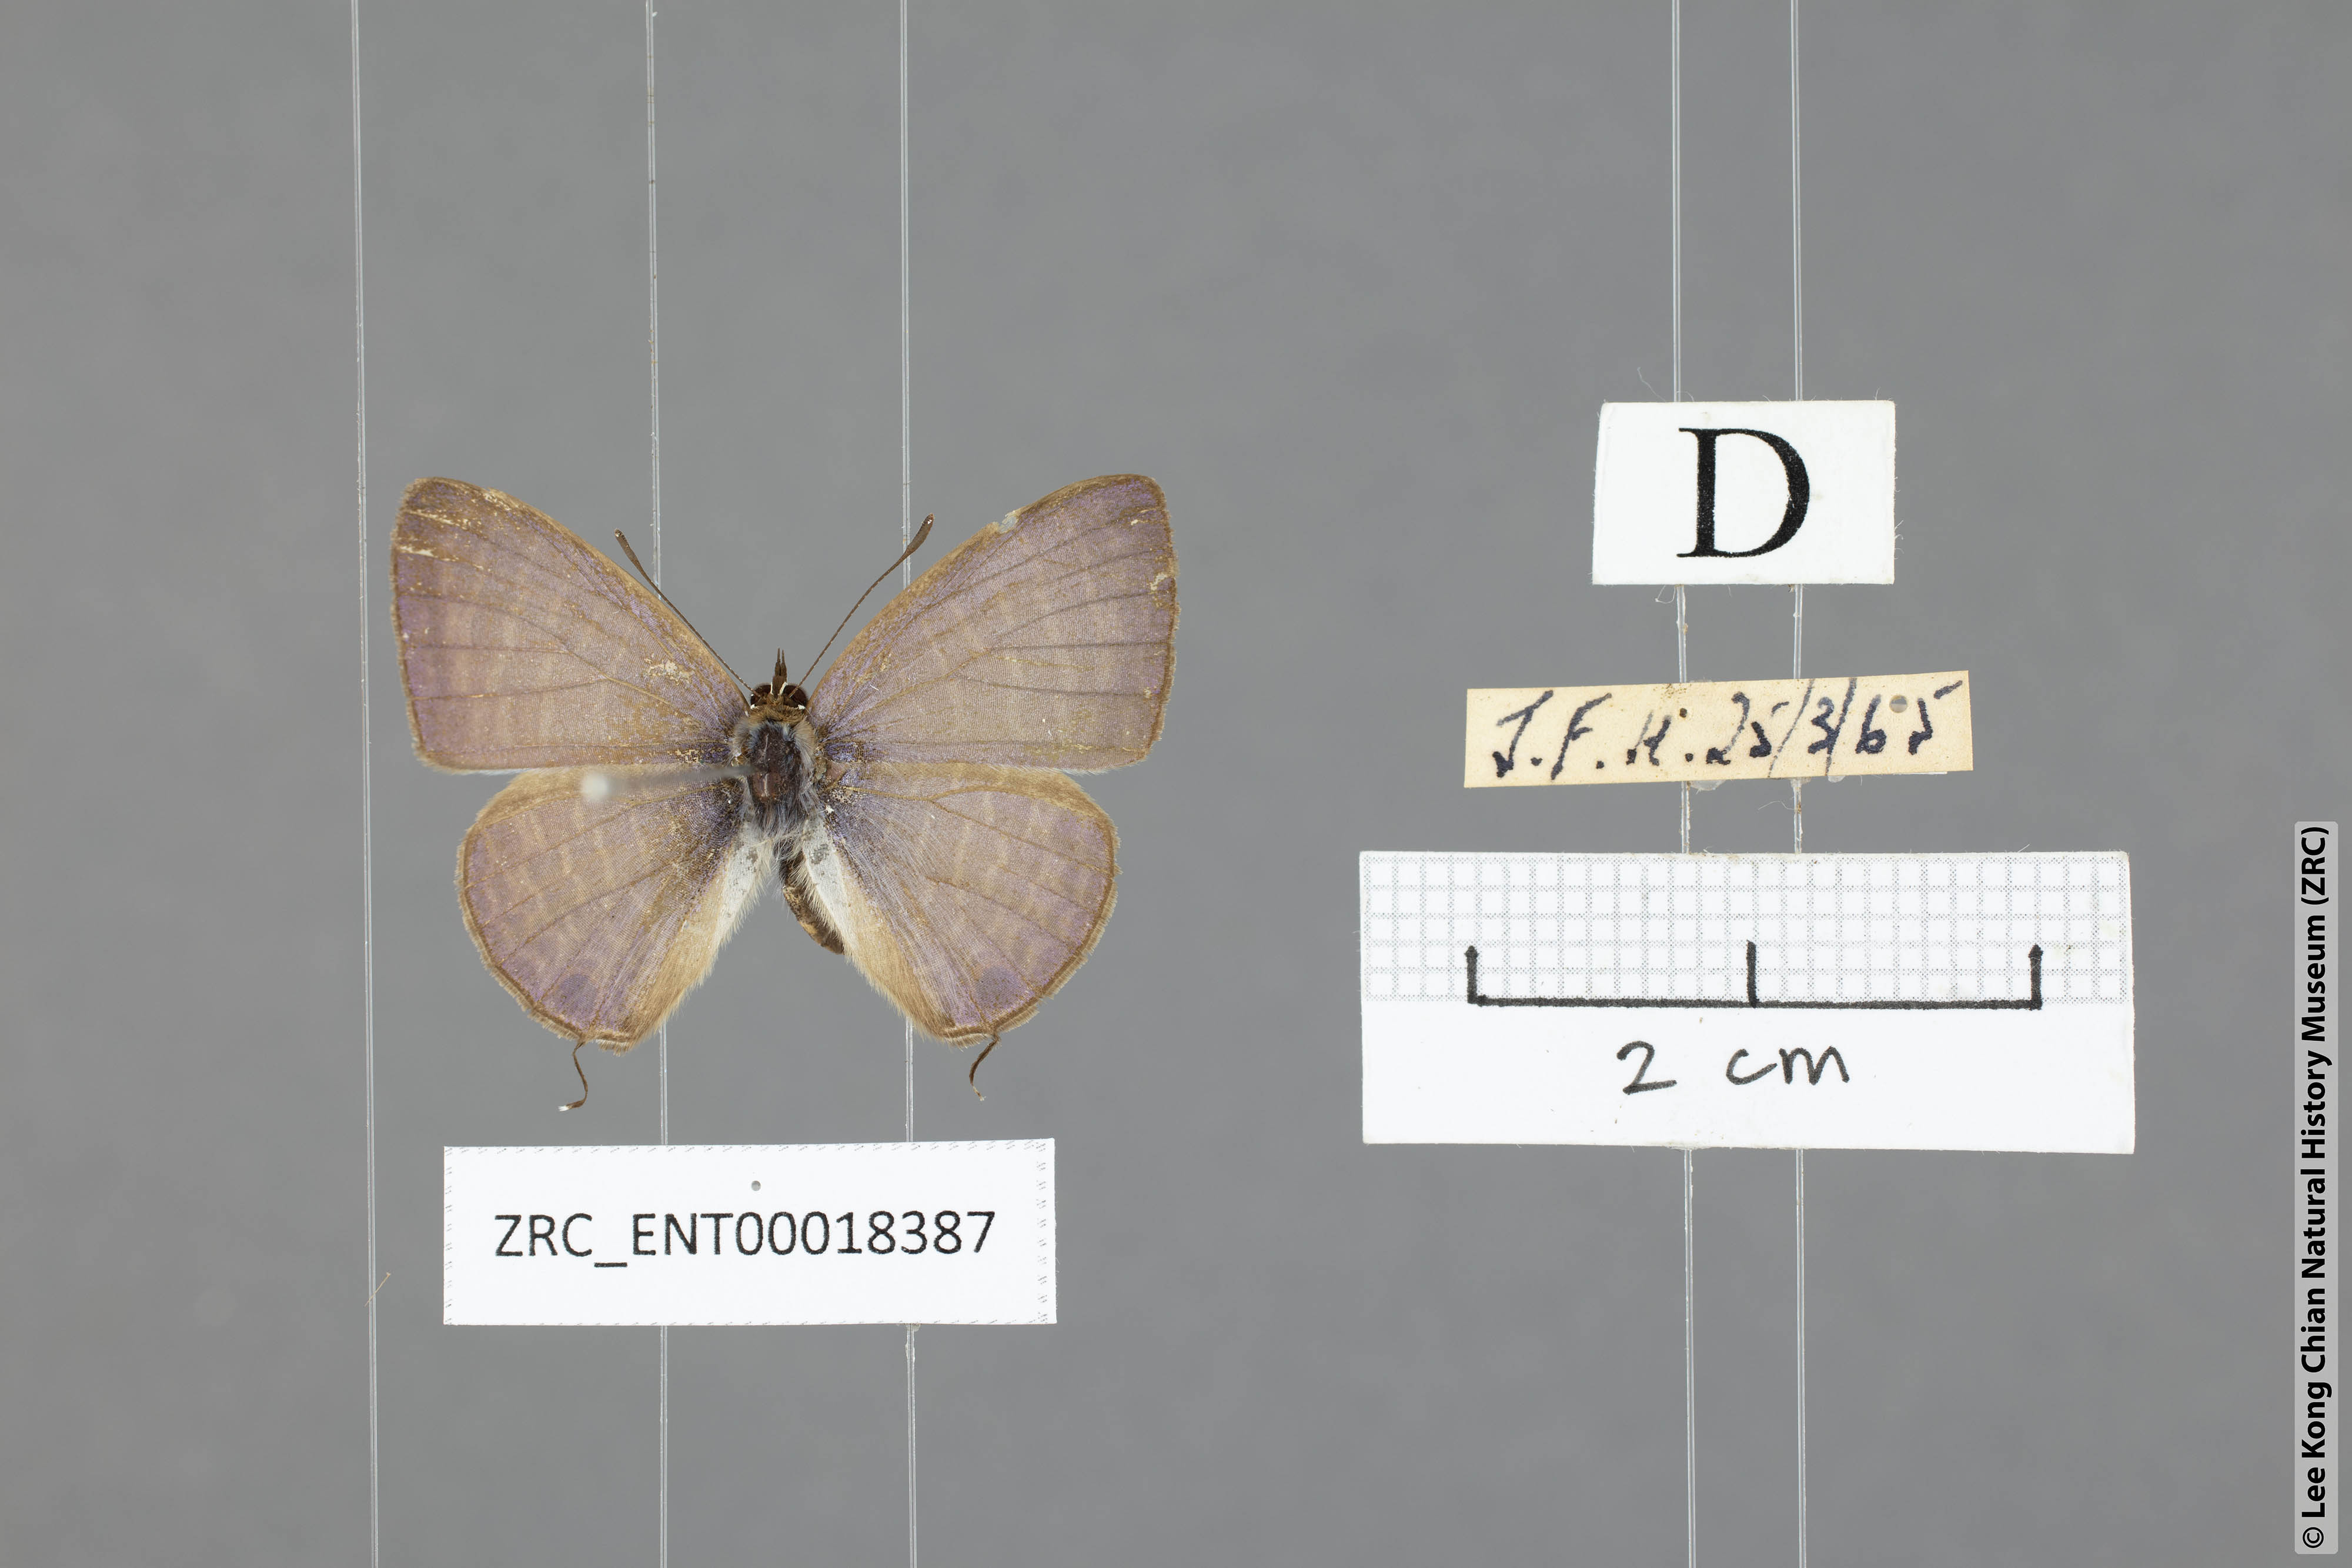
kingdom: Animalia
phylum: Arthropoda
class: Insecta
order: Lepidoptera
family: Lycaenidae
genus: Nacaduba
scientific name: Nacaduba kurava
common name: Transparent 6-line blue
